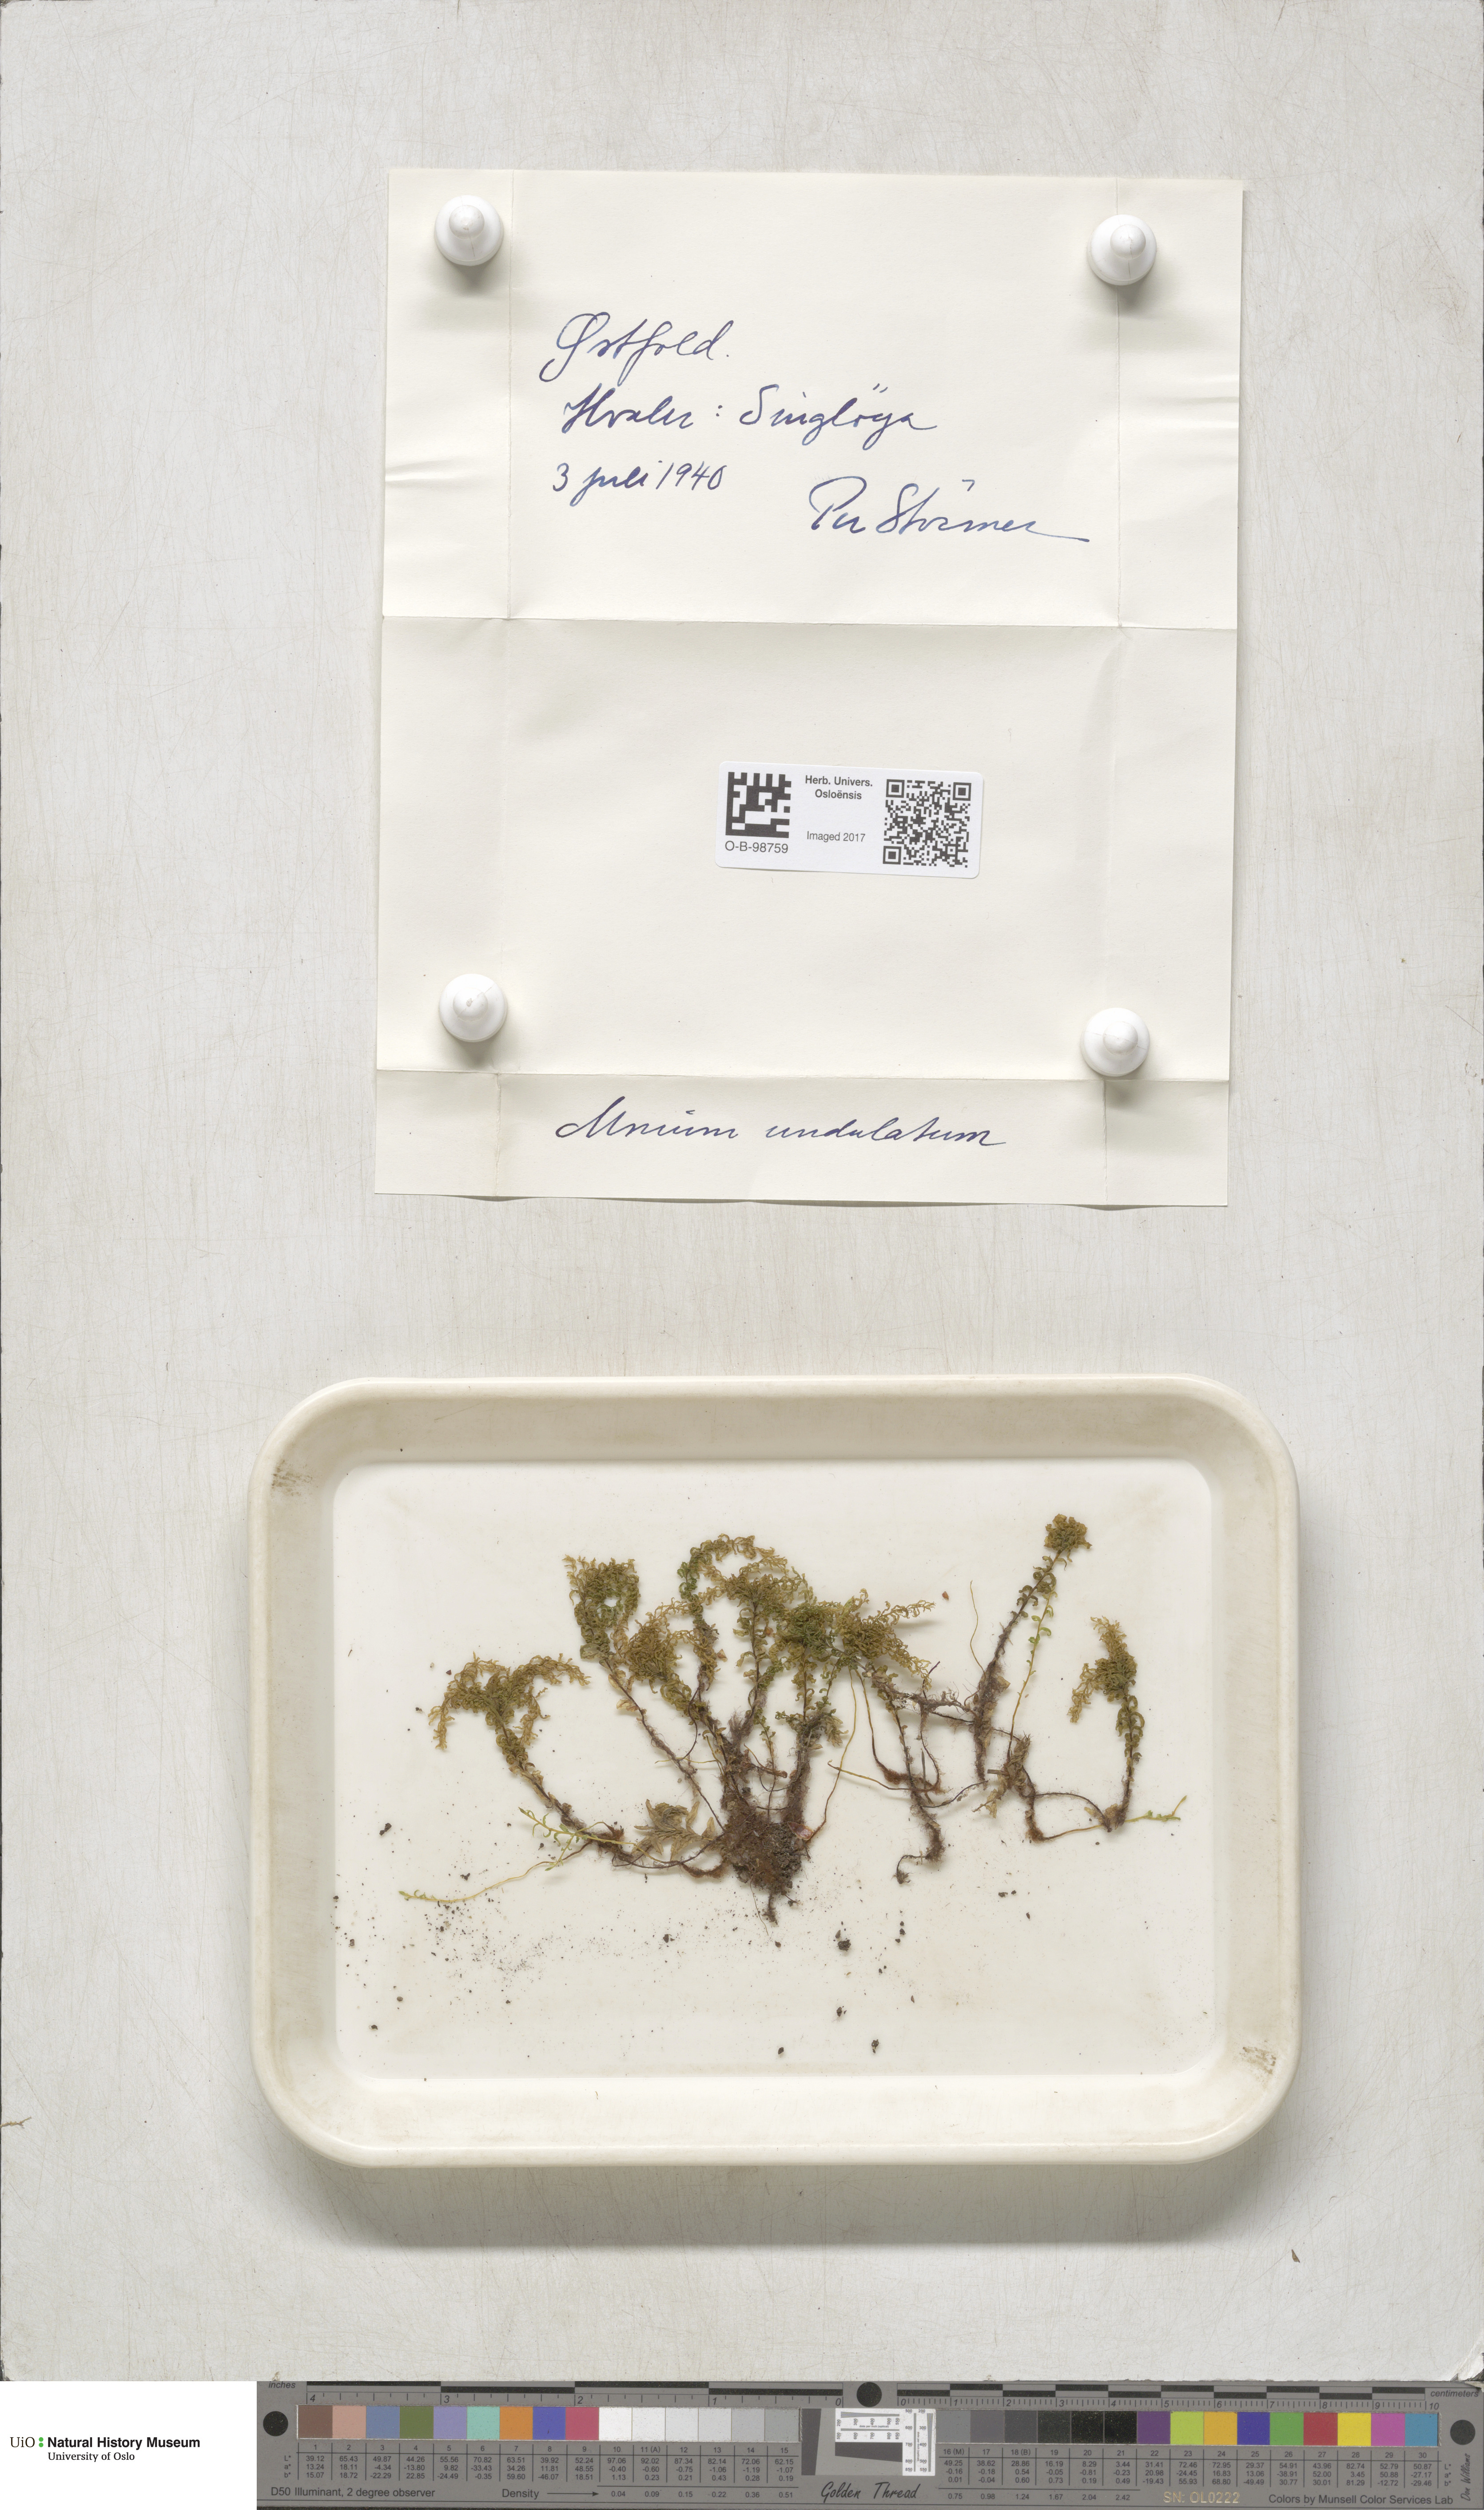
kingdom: Plantae
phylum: Bryophyta
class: Bryopsida
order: Bryales
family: Mniaceae
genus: Plagiomnium
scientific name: Plagiomnium undulatum
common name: Hart's-tongue thyme-moss
